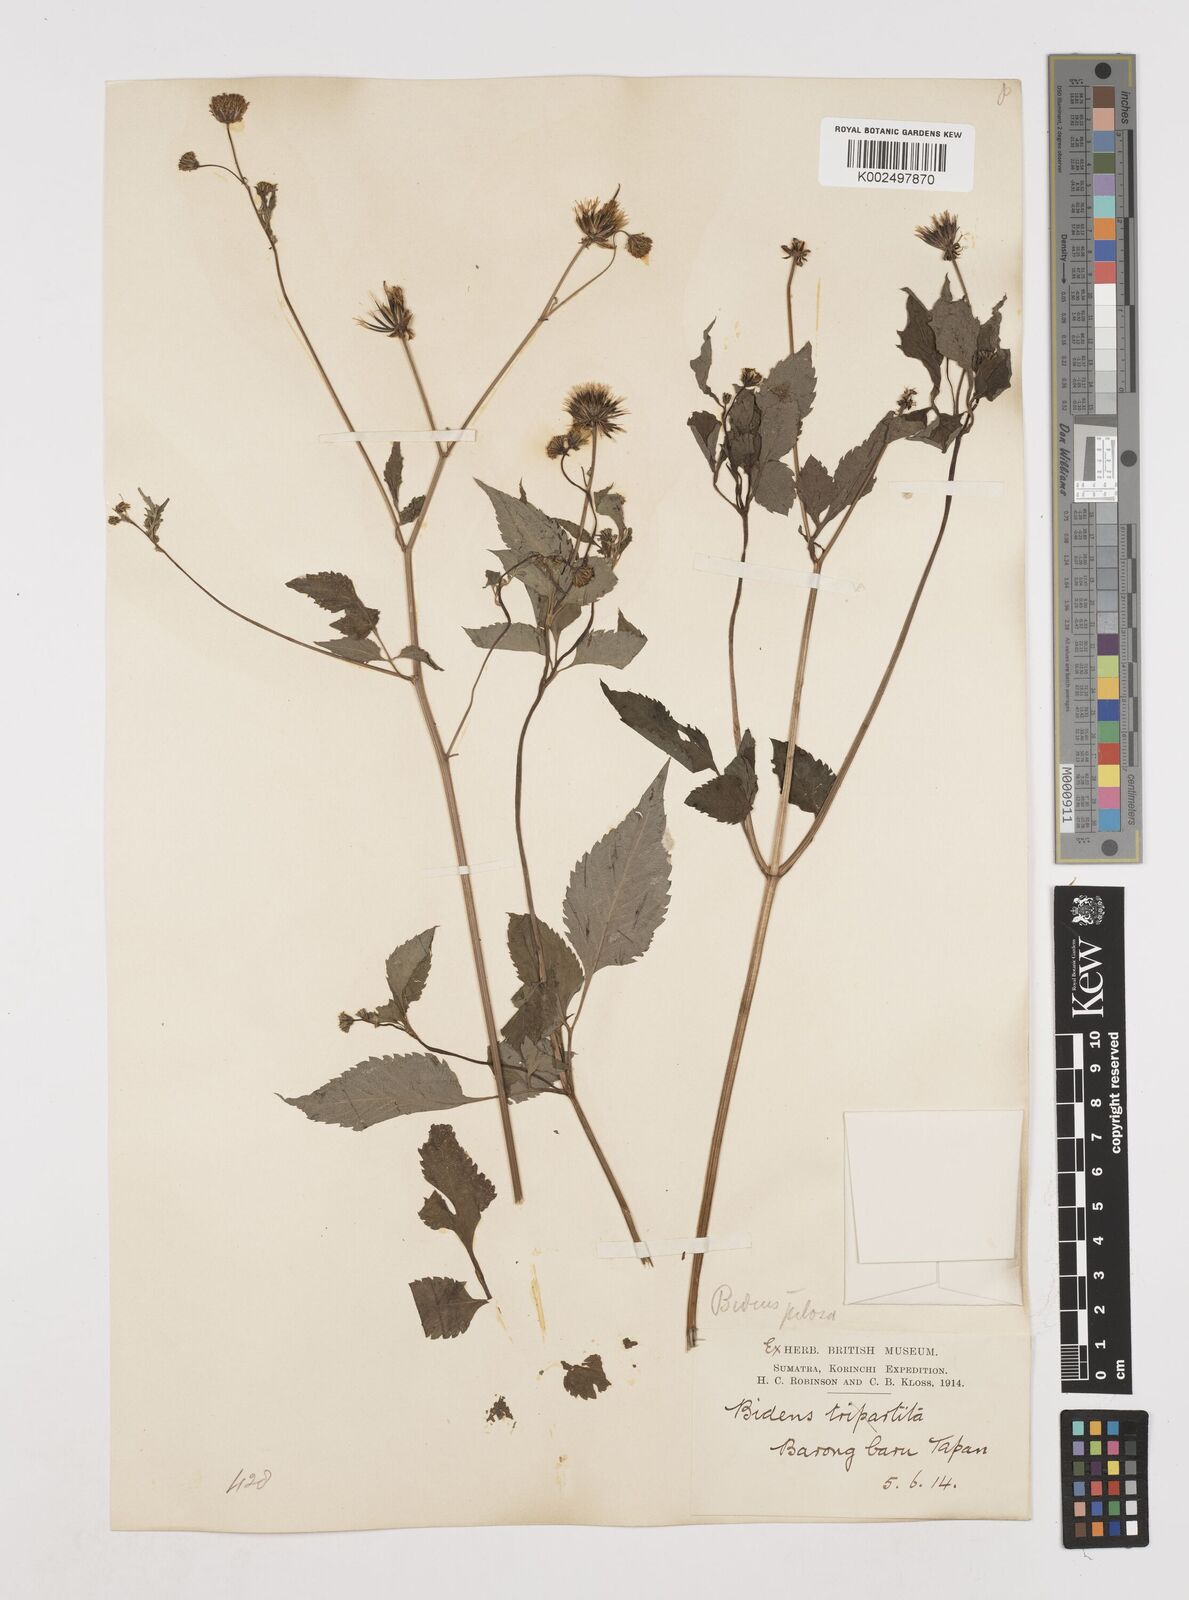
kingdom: Plantae
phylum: Tracheophyta
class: Magnoliopsida
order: Asterales
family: Asteraceae
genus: Bidens
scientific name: Bidens pilosa
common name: Black-jack
